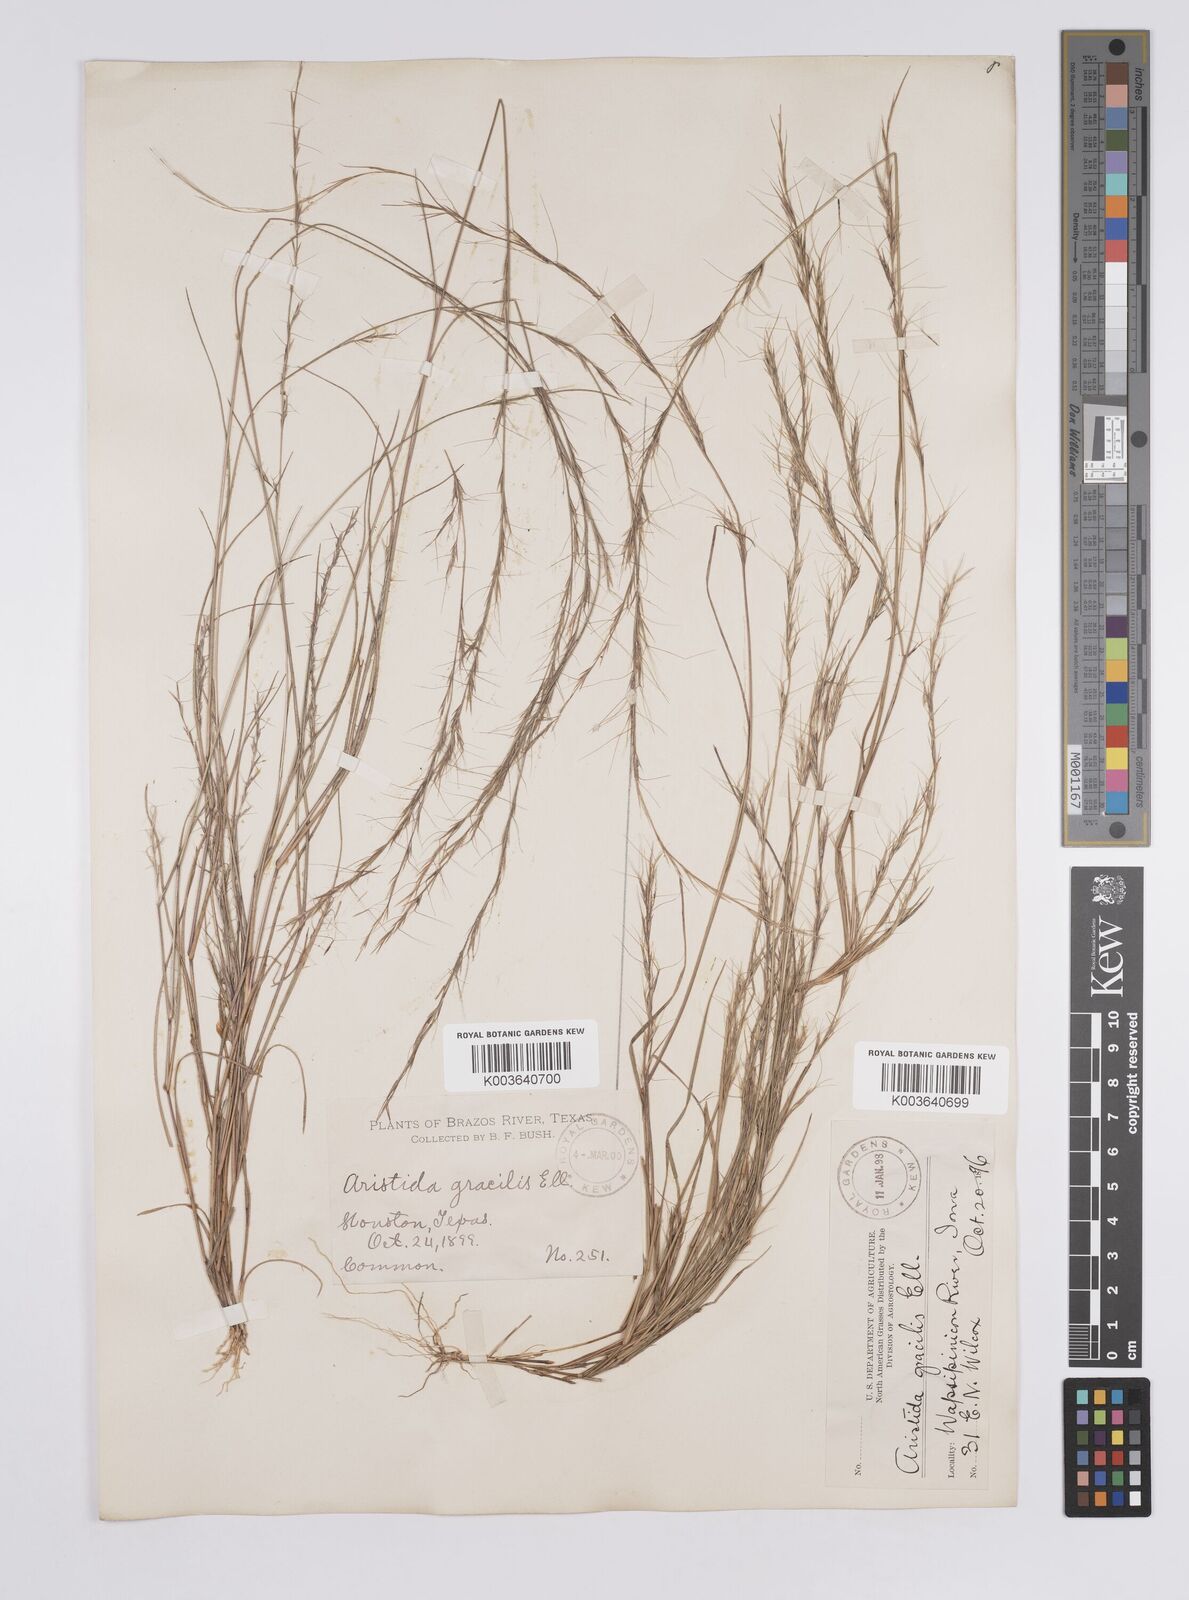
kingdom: Plantae
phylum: Tracheophyta
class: Liliopsida
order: Poales
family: Poaceae
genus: Aristida
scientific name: Aristida longespica
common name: Long-spiked triple-awned grass
